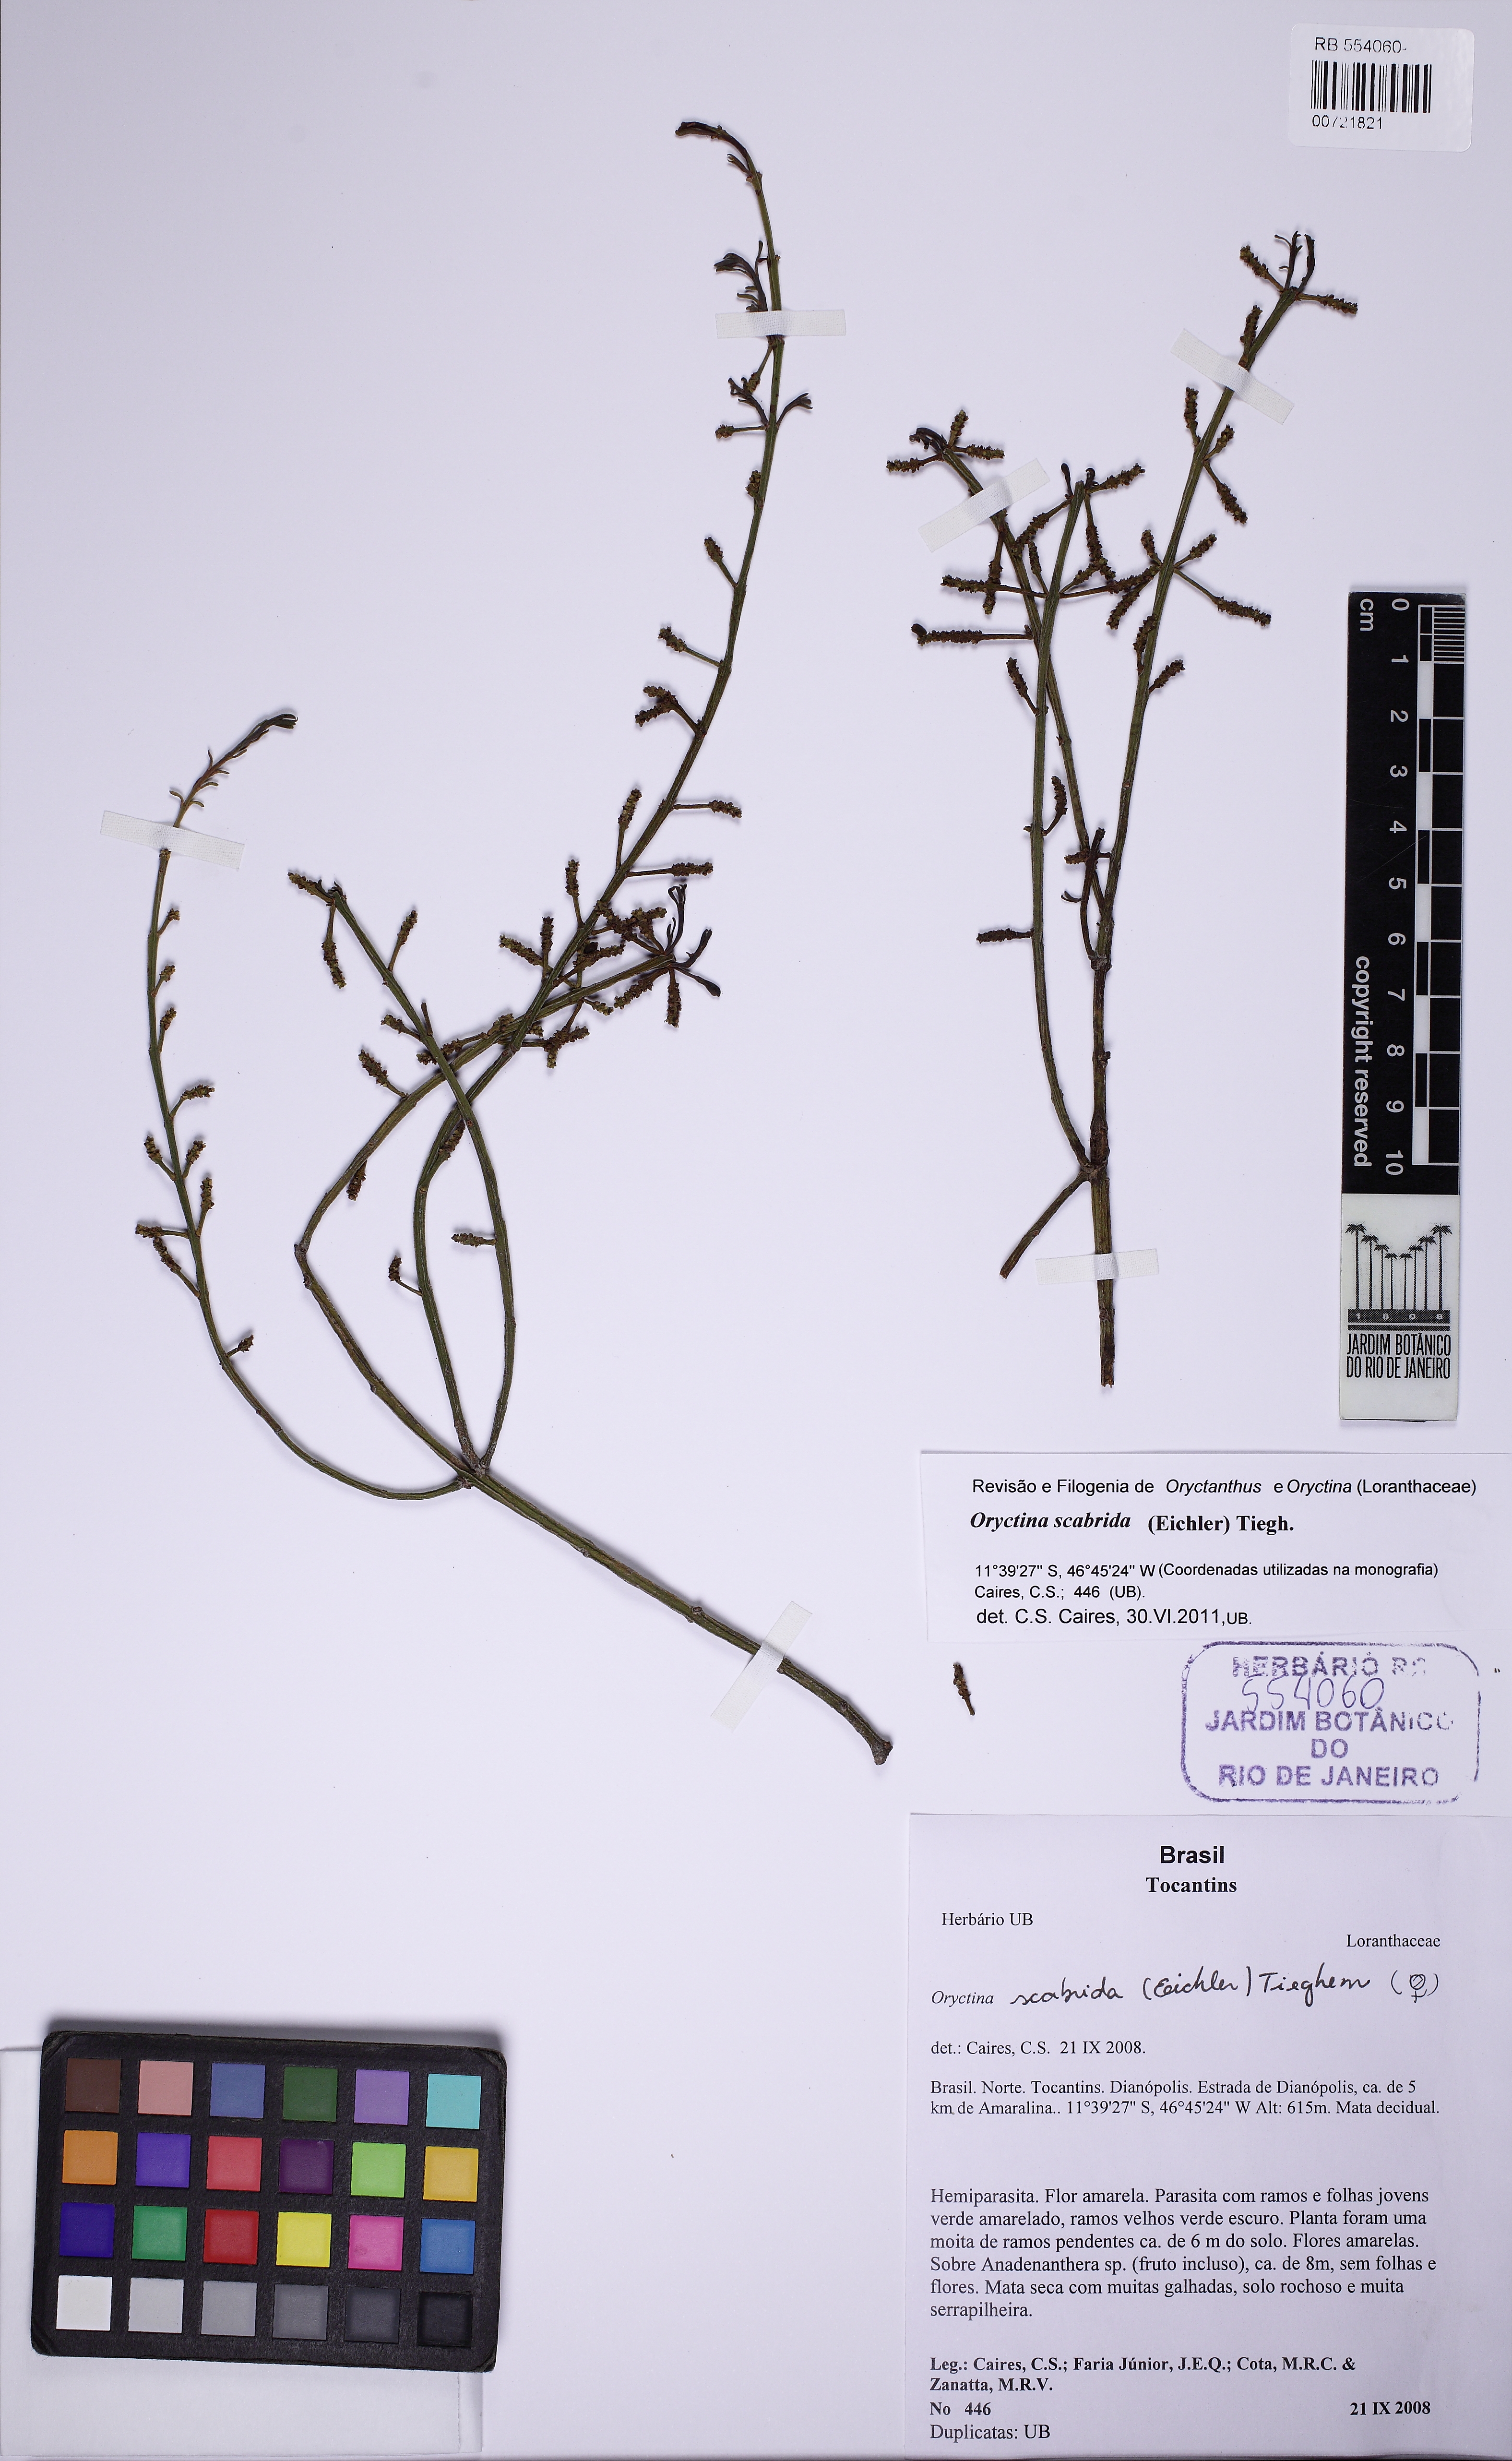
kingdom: Plantae
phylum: Tracheophyta
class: Magnoliopsida
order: Santalales
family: Loranthaceae
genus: Oryctina
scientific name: Oryctina scabrida
